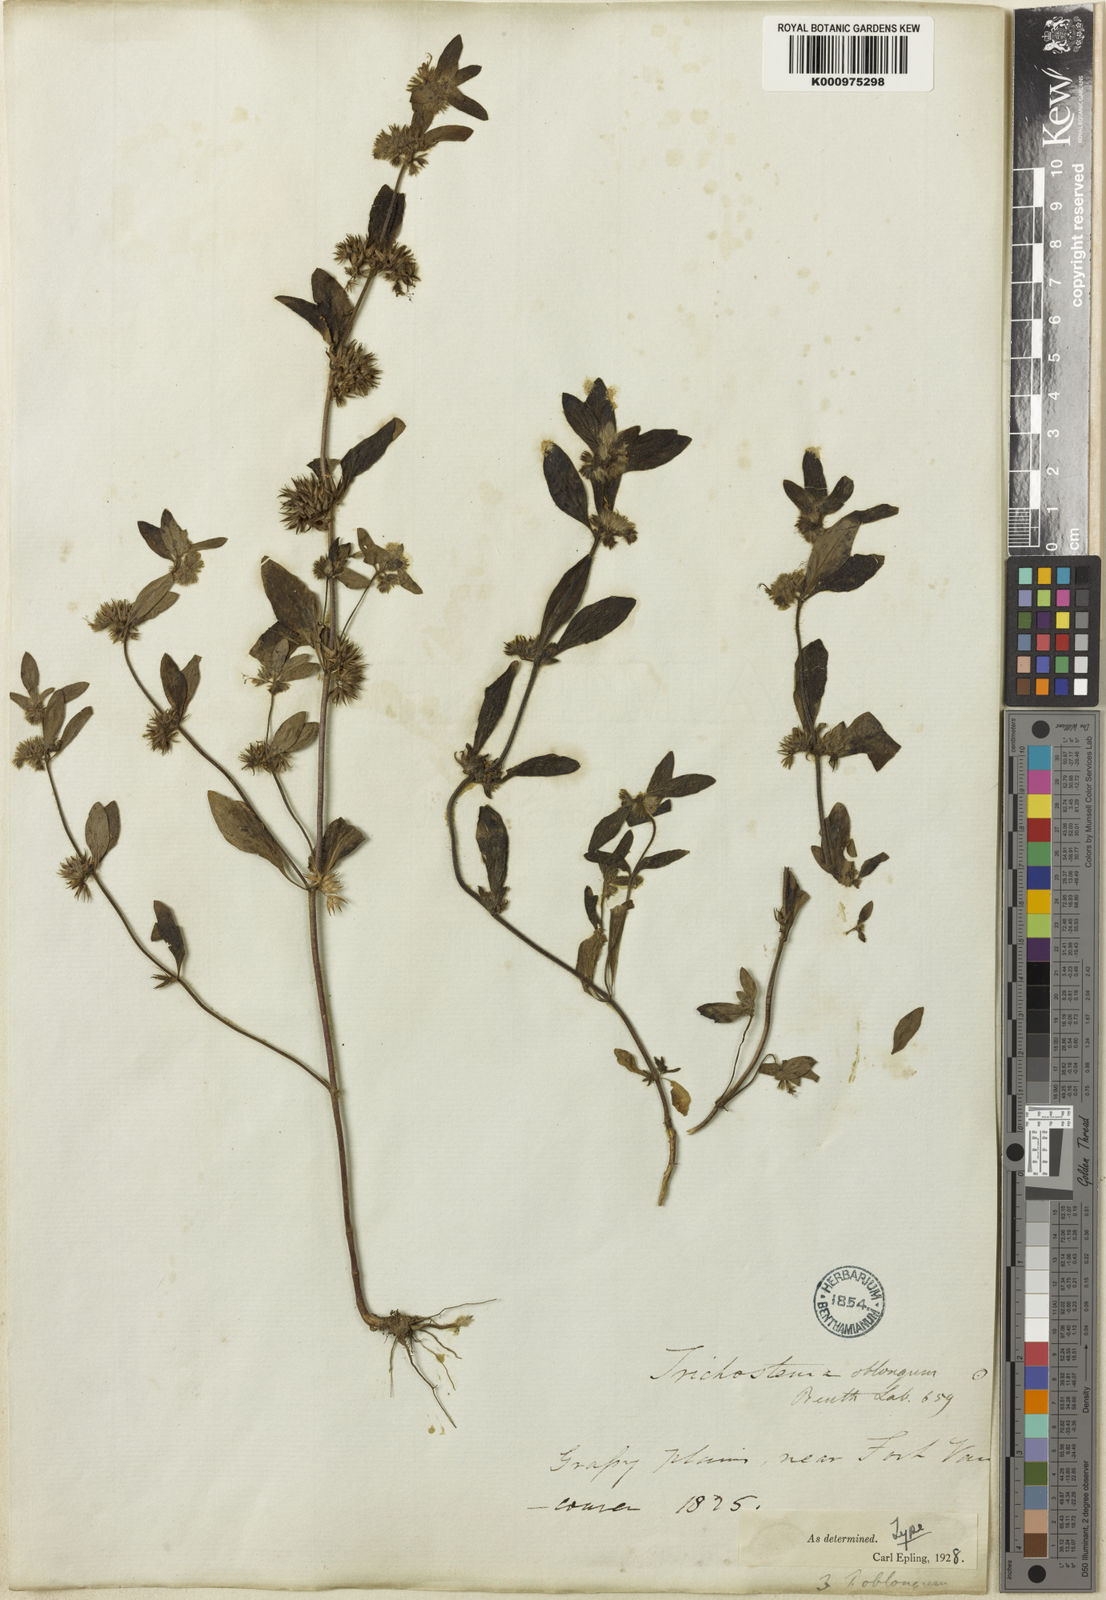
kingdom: Plantae
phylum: Tracheophyta
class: Magnoliopsida
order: Lamiales
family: Lamiaceae
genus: Trichostema
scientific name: Trichostema oblongum
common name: Mountain bluecurls
